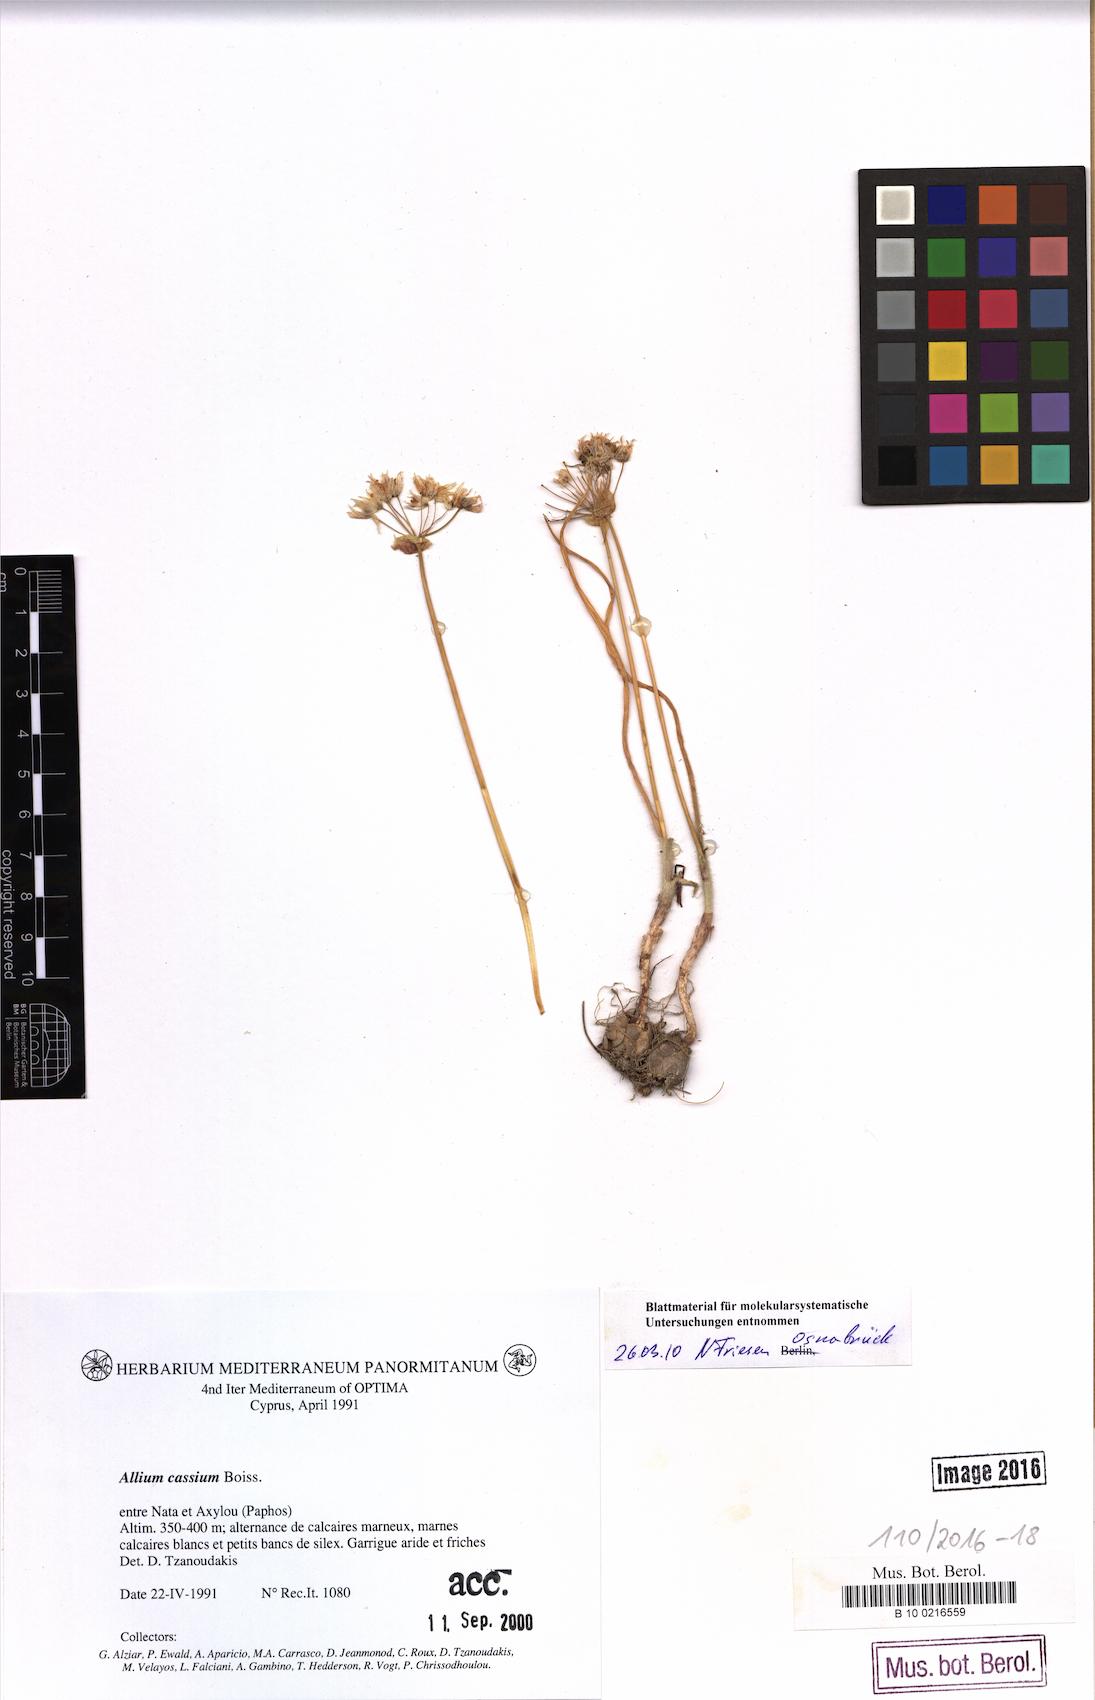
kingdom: Plantae
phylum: Tracheophyta
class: Liliopsida
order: Asparagales
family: Amaryllidaceae
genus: Allium
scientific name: Allium cassium
